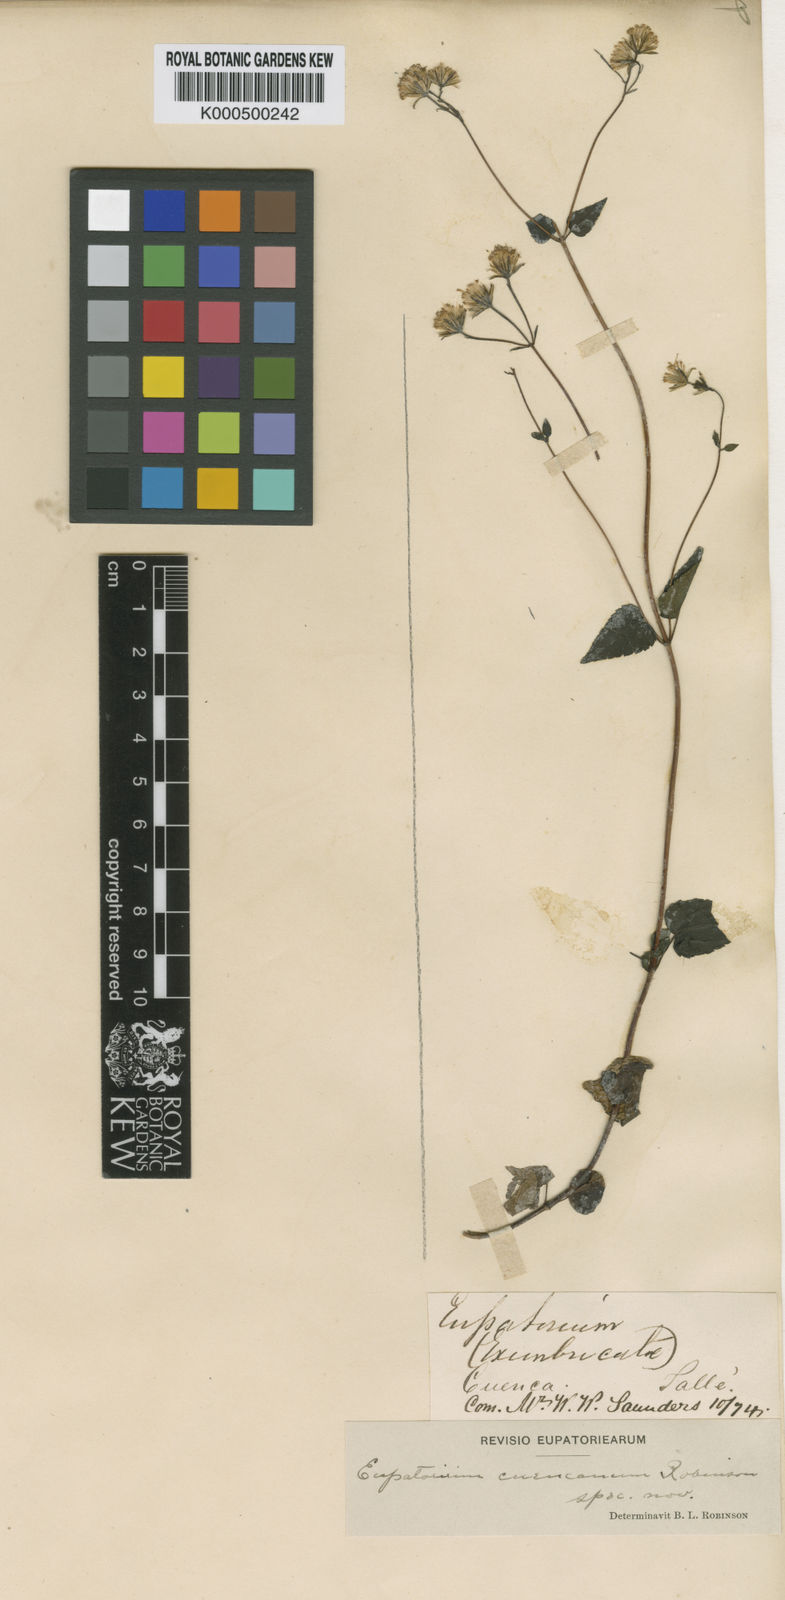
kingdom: Plantae
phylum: Tracheophyta
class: Magnoliopsida
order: Asterales
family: Asteraceae
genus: Ageratina
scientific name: Ageratina cuencana
